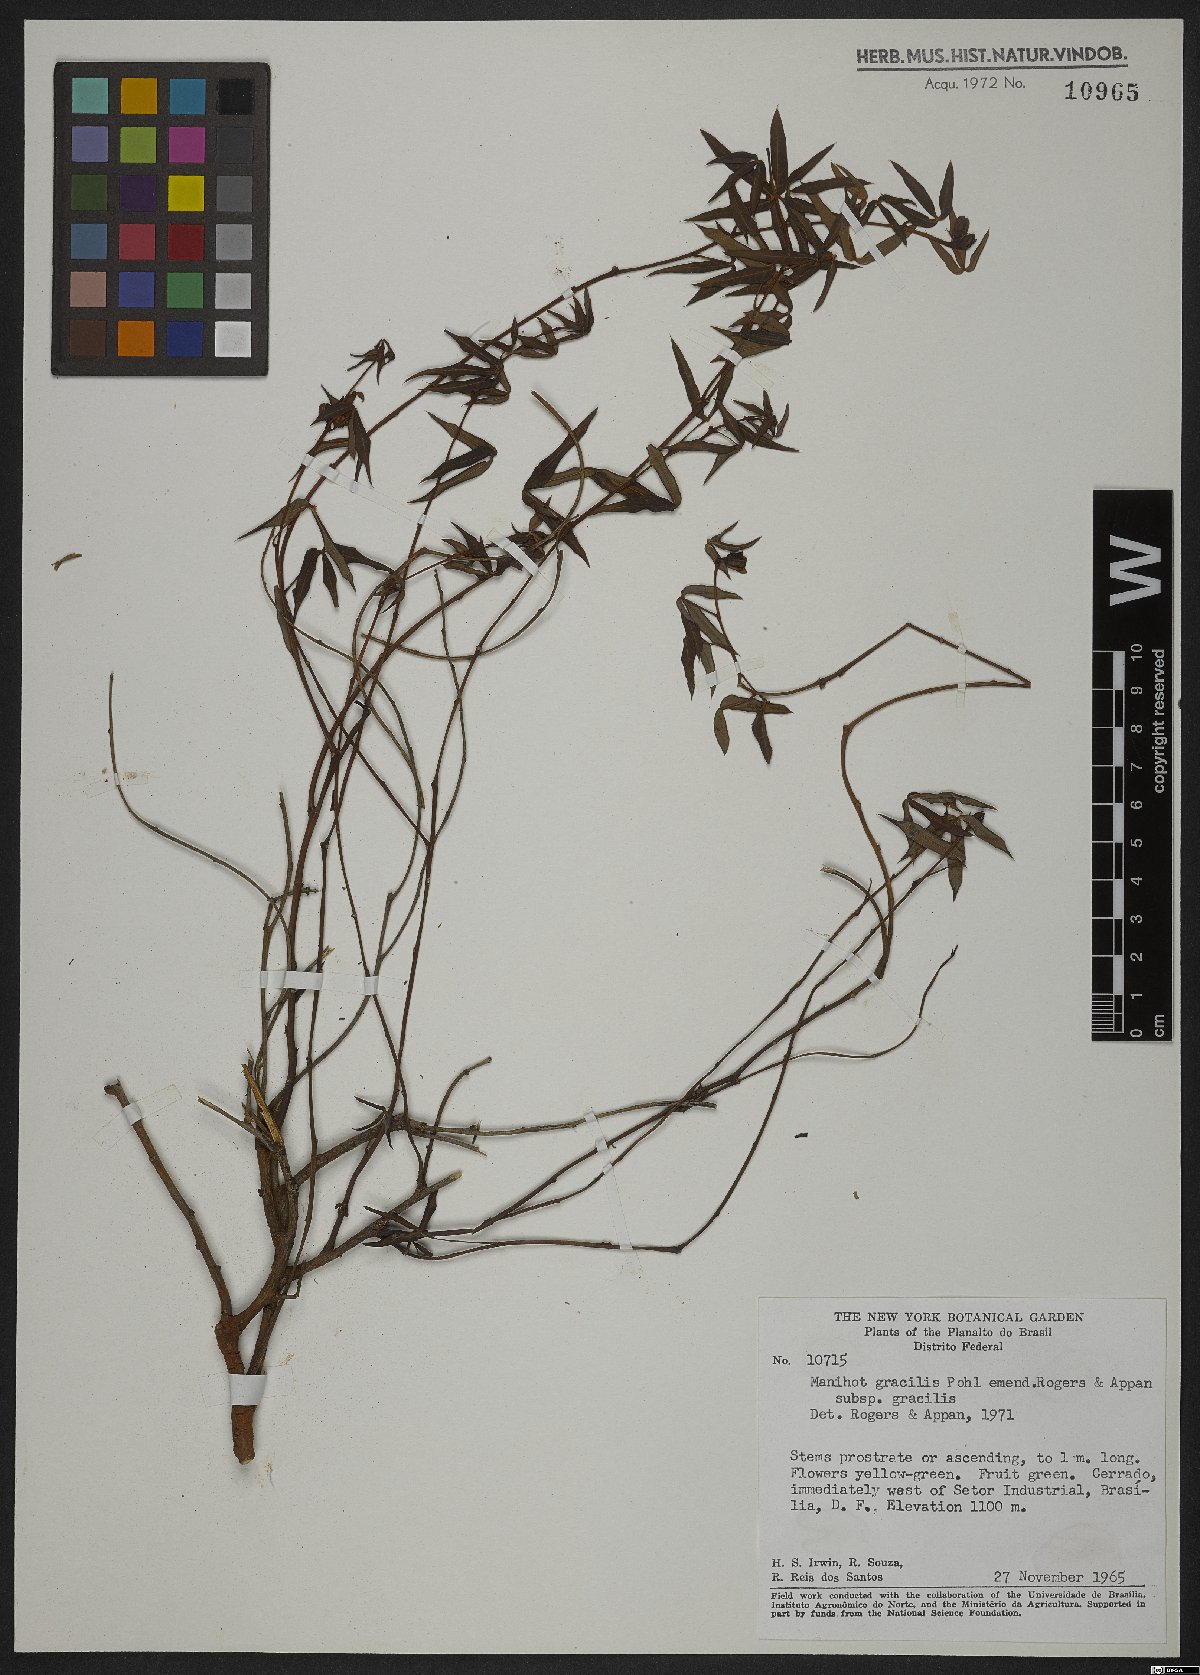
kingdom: Plantae
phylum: Tracheophyta
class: Magnoliopsida
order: Malpighiales
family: Euphorbiaceae
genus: Manihot
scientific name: Manihot gracilis
